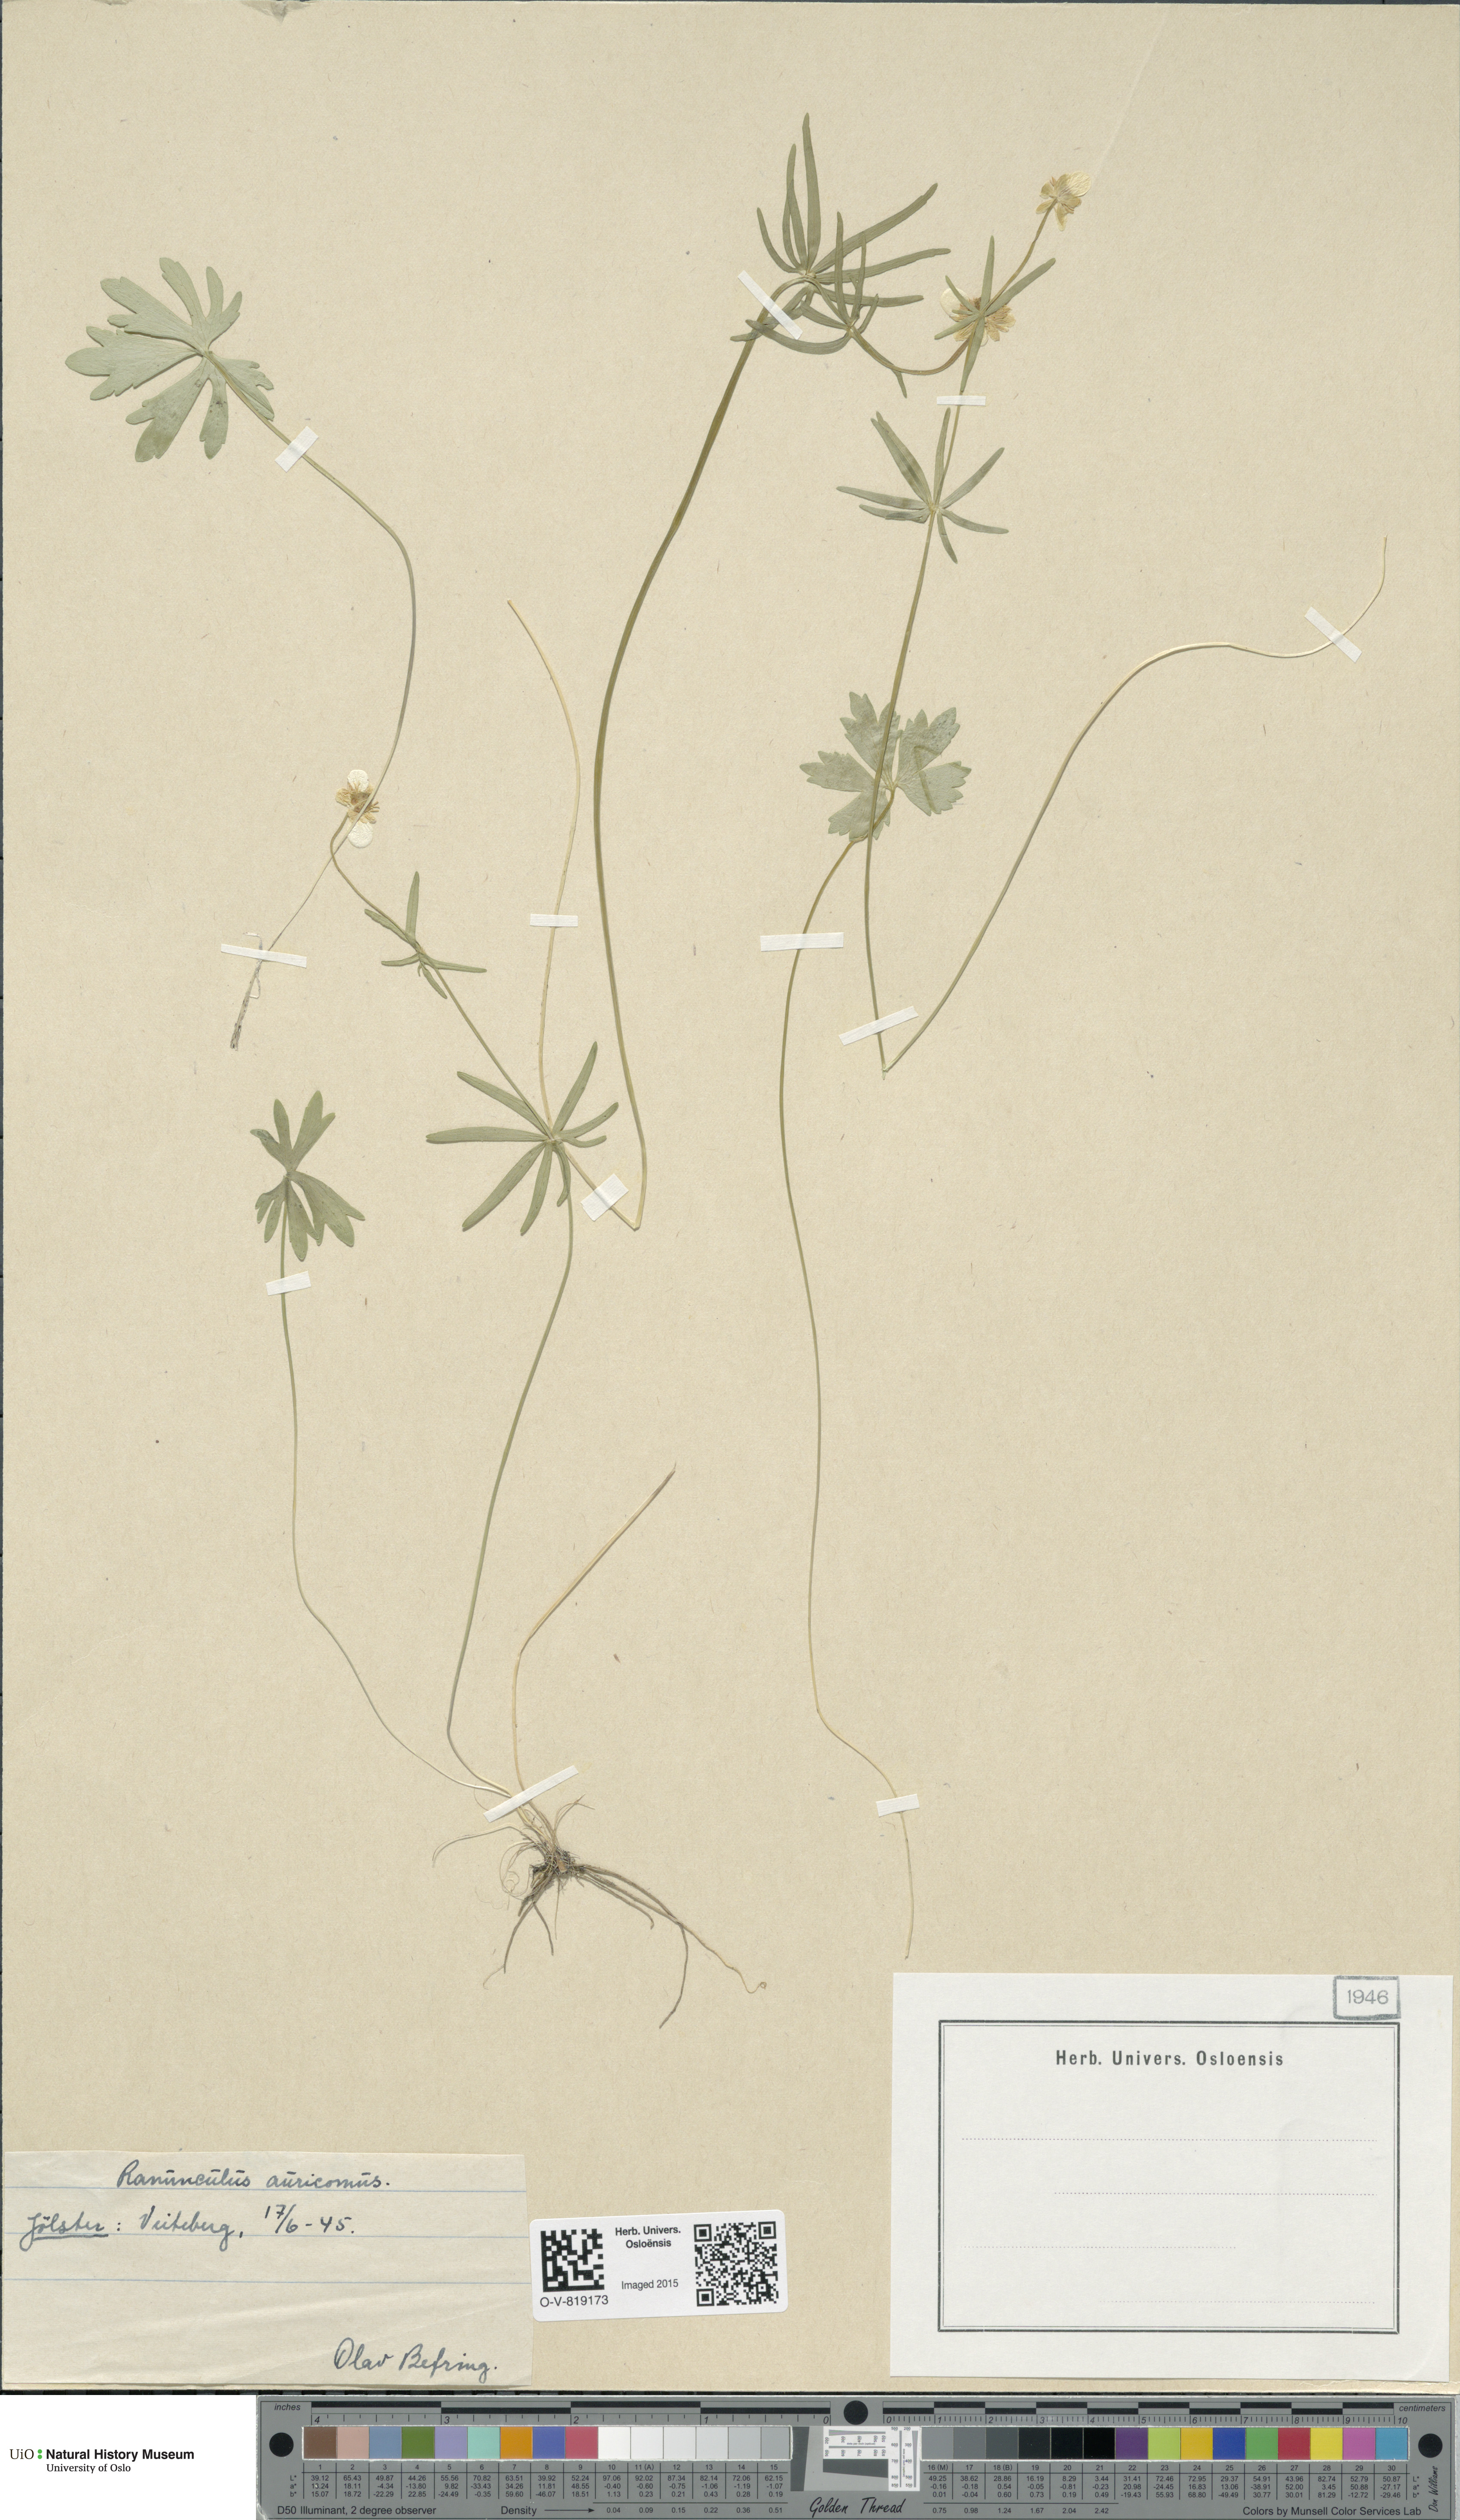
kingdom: Plantae
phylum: Tracheophyta
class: Magnoliopsida
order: Ranunculales
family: Ranunculaceae
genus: Ranunculus
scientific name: Ranunculus auricomus
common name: Goldilocks buttercup
